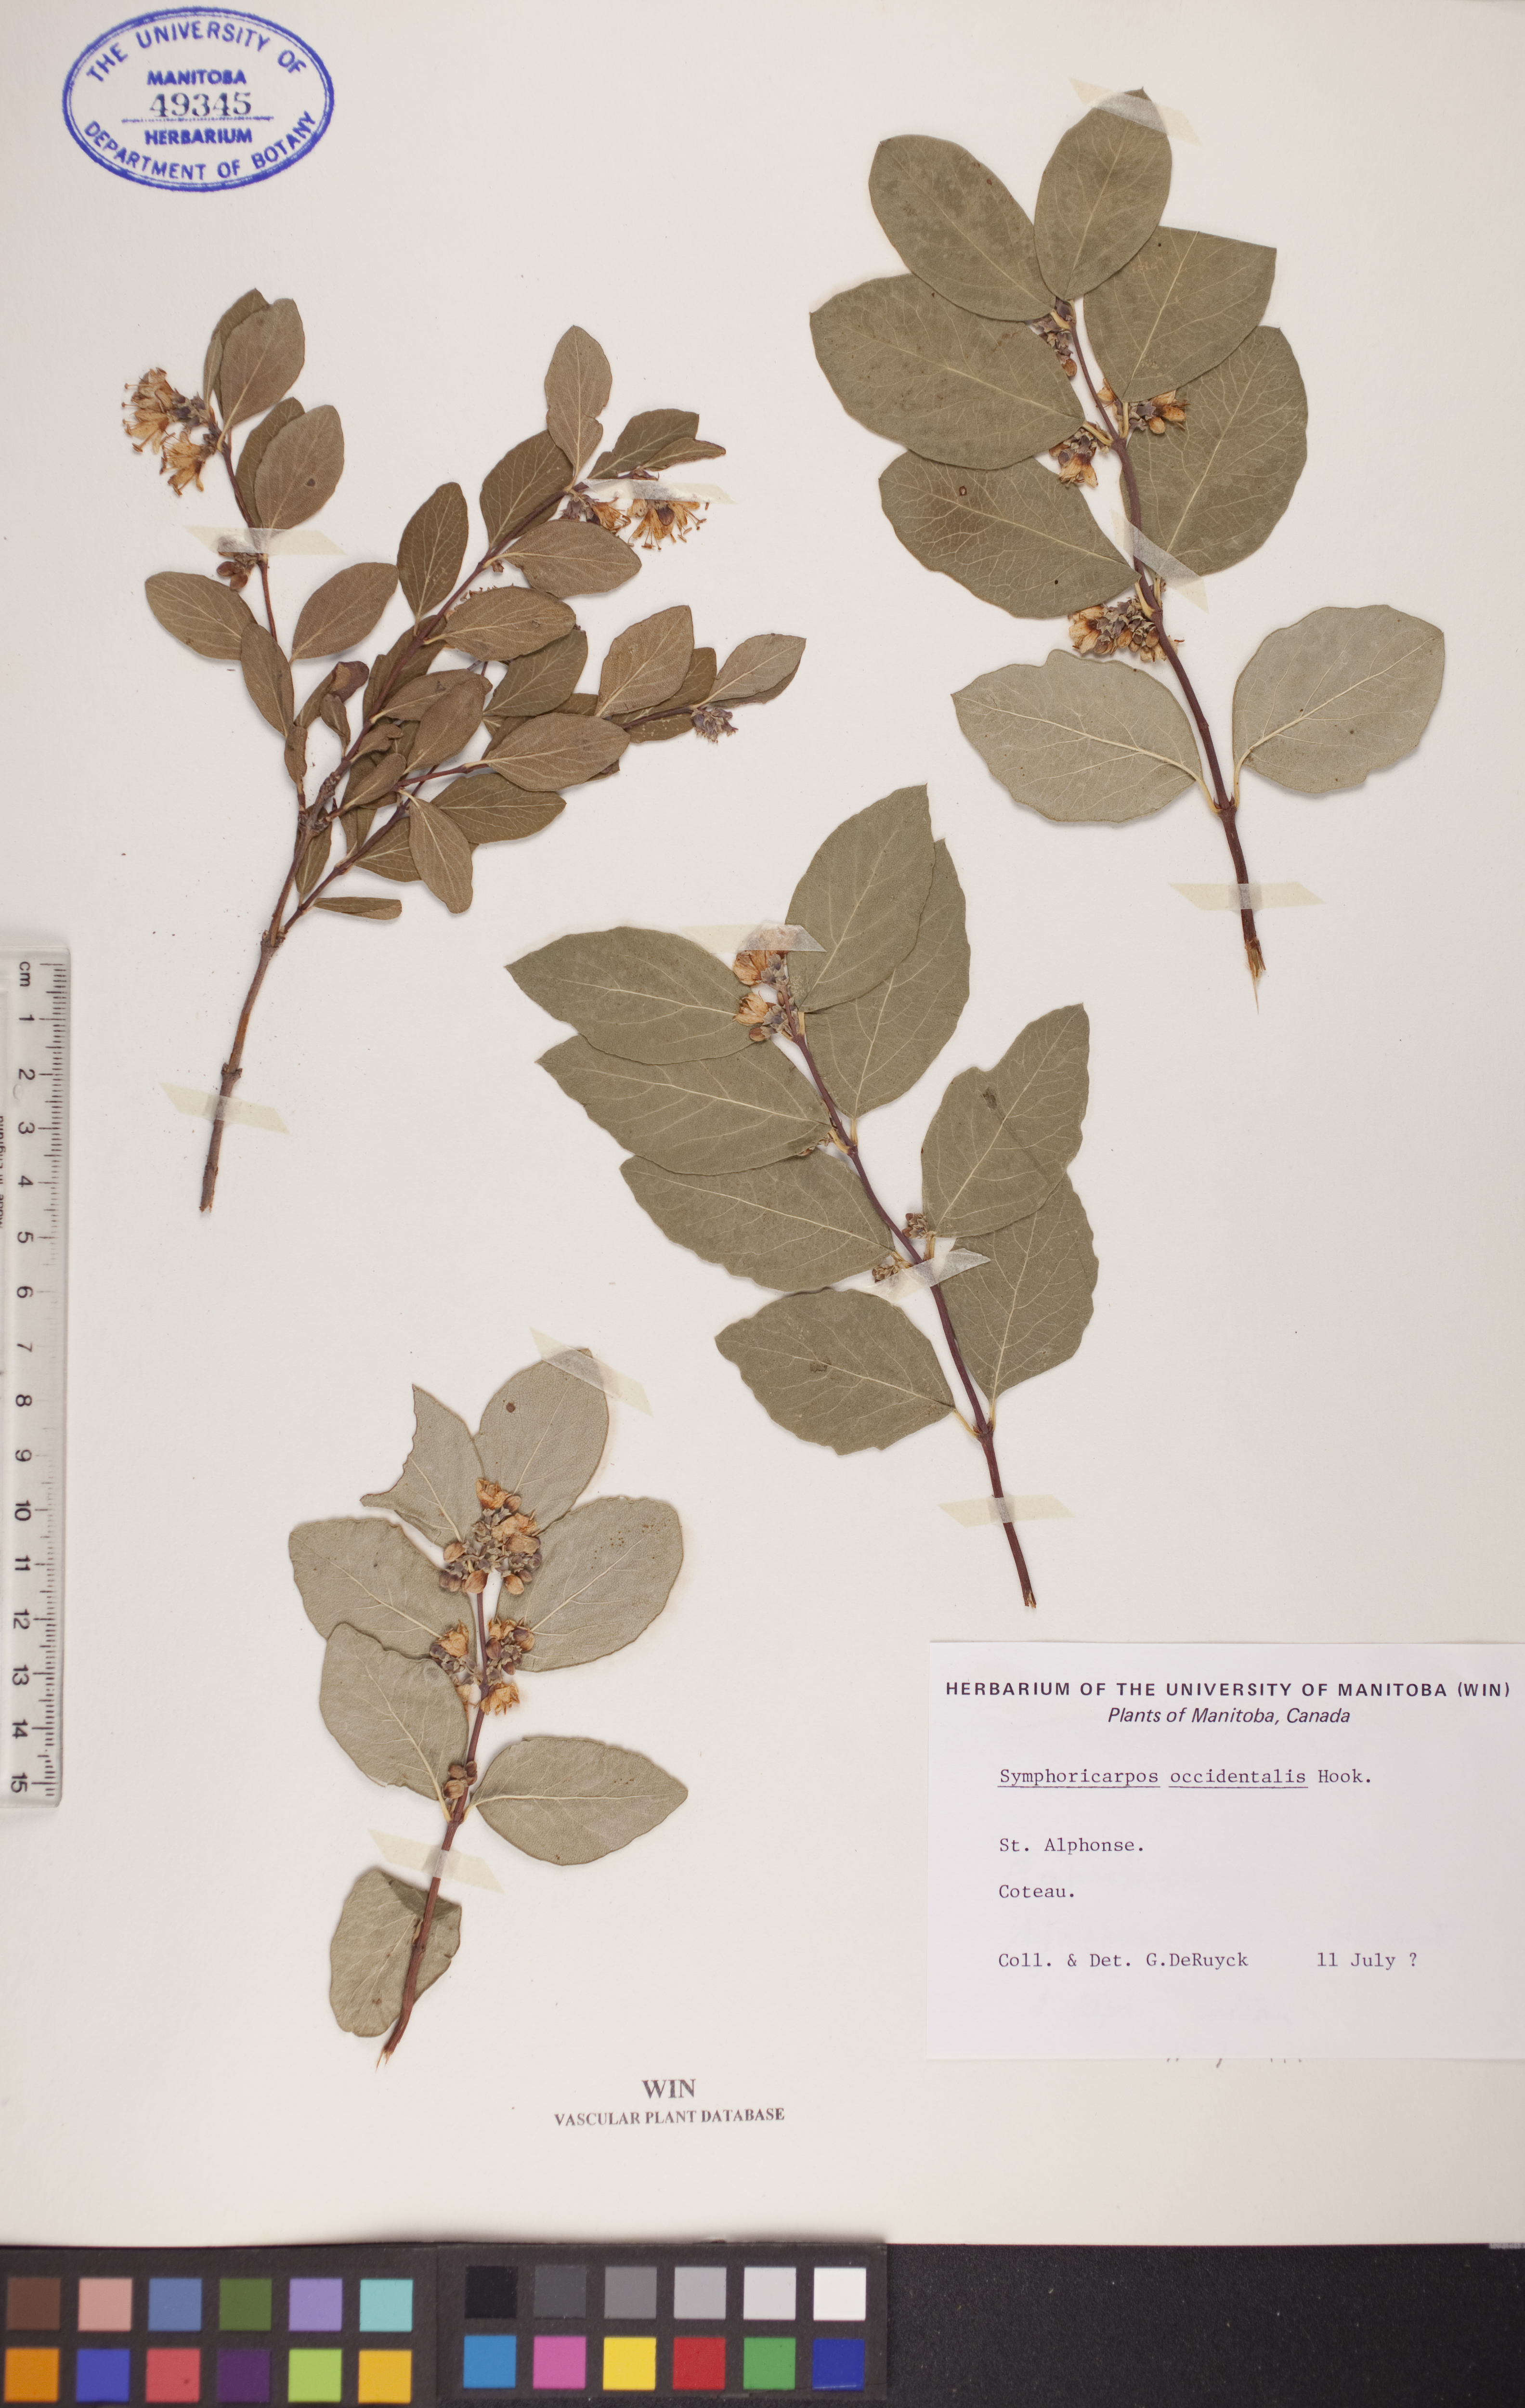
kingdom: Plantae
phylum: Tracheophyta
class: Magnoliopsida
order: Dipsacales
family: Caprifoliaceae
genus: Symphoricarpos
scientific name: Symphoricarpos occidentalis
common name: Wolfberry
